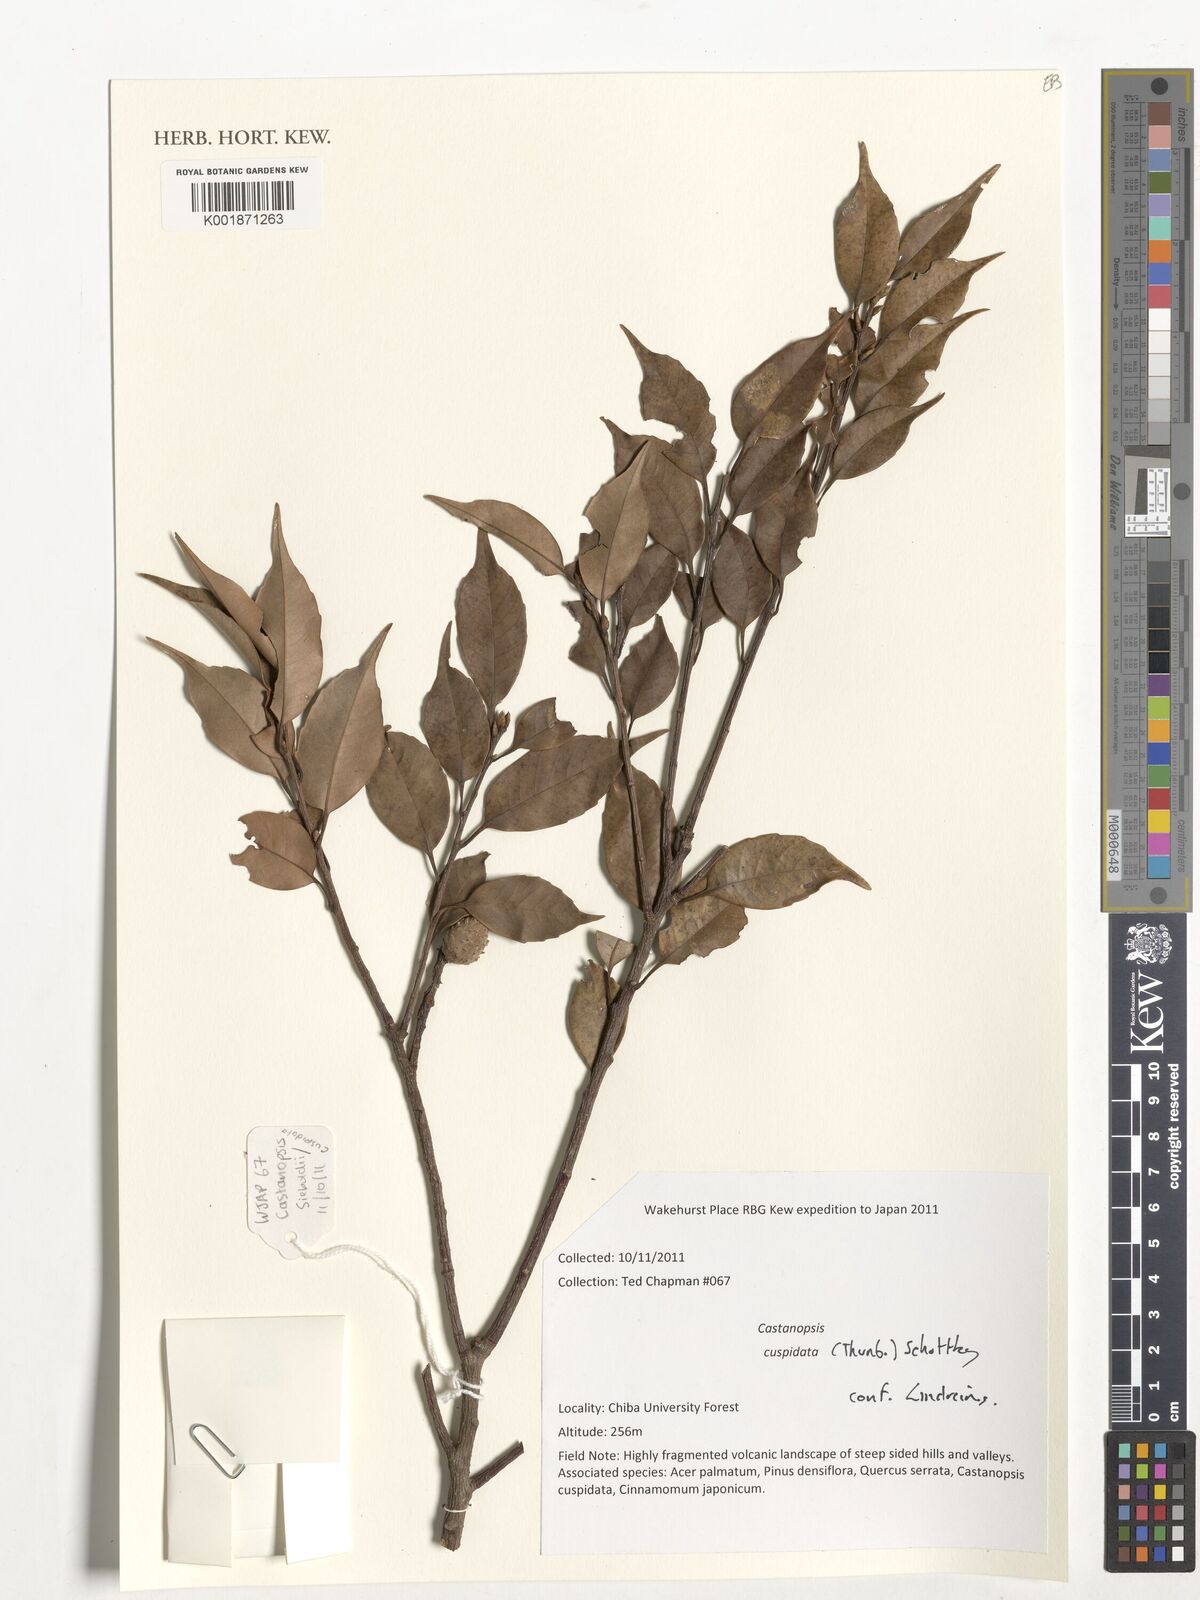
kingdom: Plantae
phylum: Tracheophyta
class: Magnoliopsida
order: Fagales
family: Fagaceae
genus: Castanopsis
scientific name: Castanopsis cuspidata
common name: Japanese chinquapin
